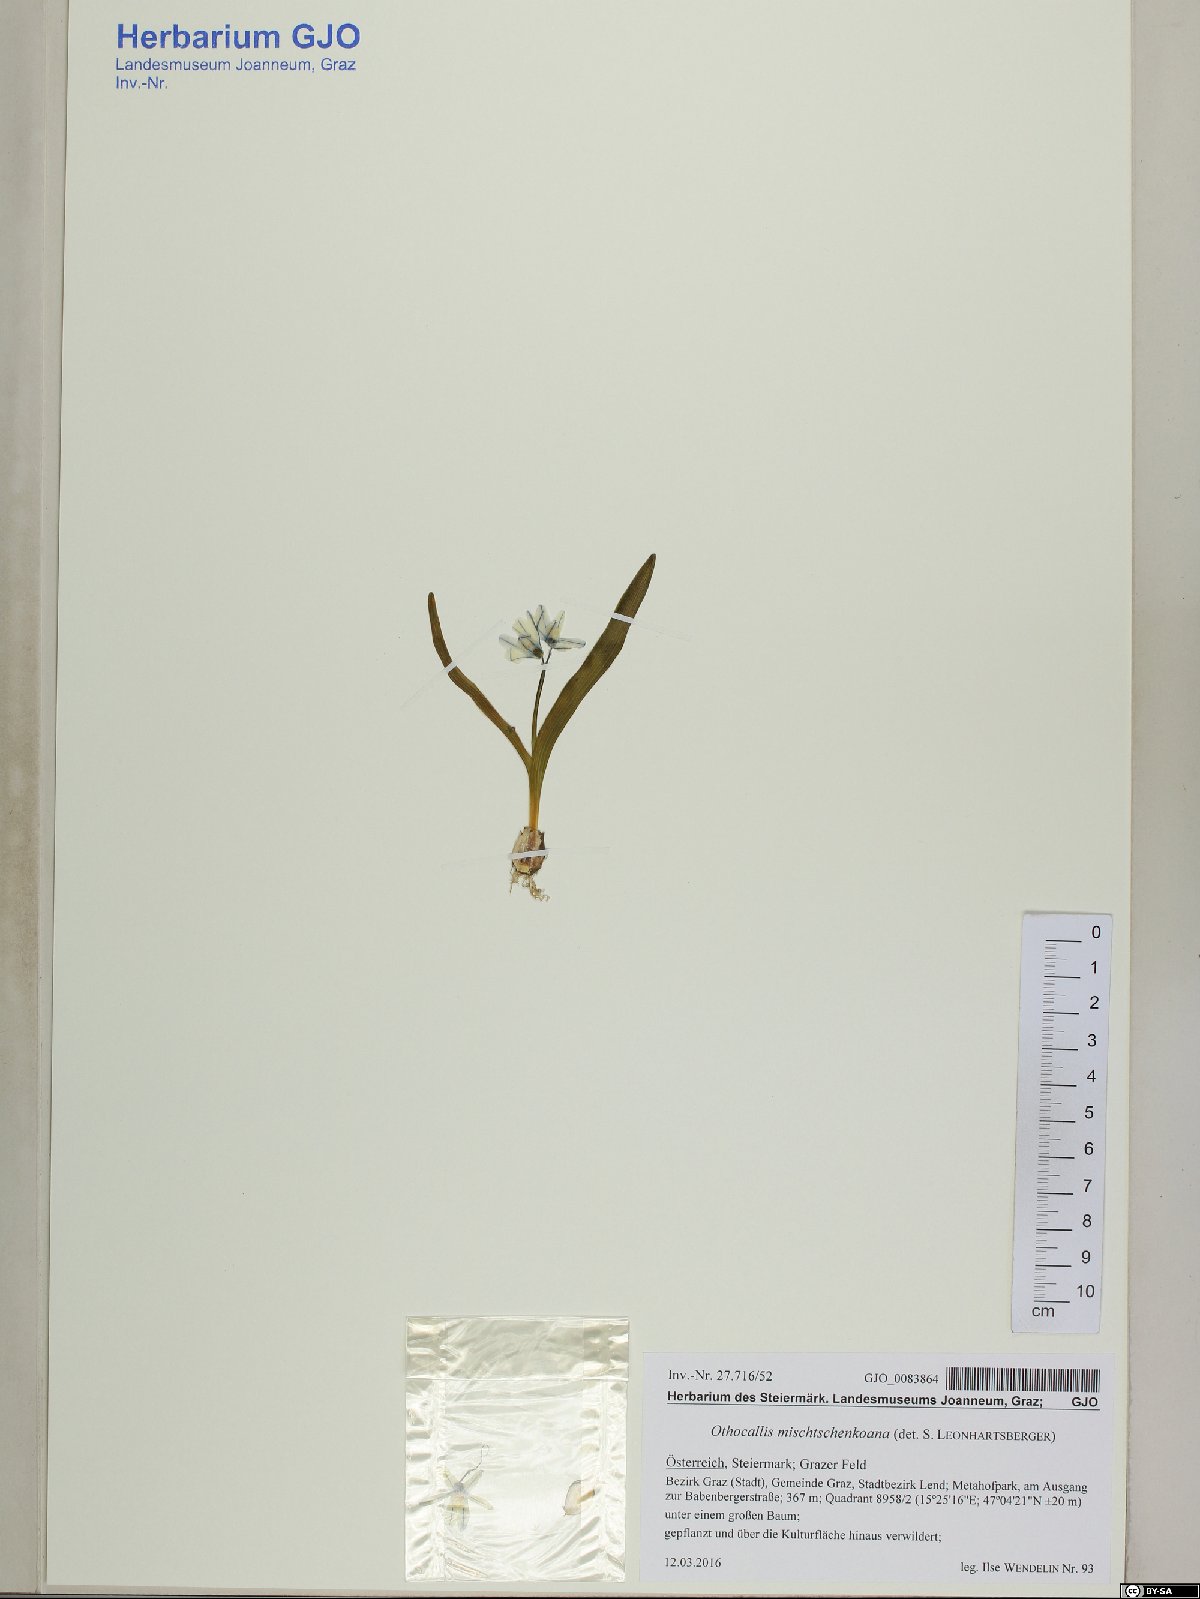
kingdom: Plantae
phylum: Tracheophyta
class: Liliopsida
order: Asparagales
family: Asparagaceae
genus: Scilla
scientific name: Scilla mischtschenkoana
